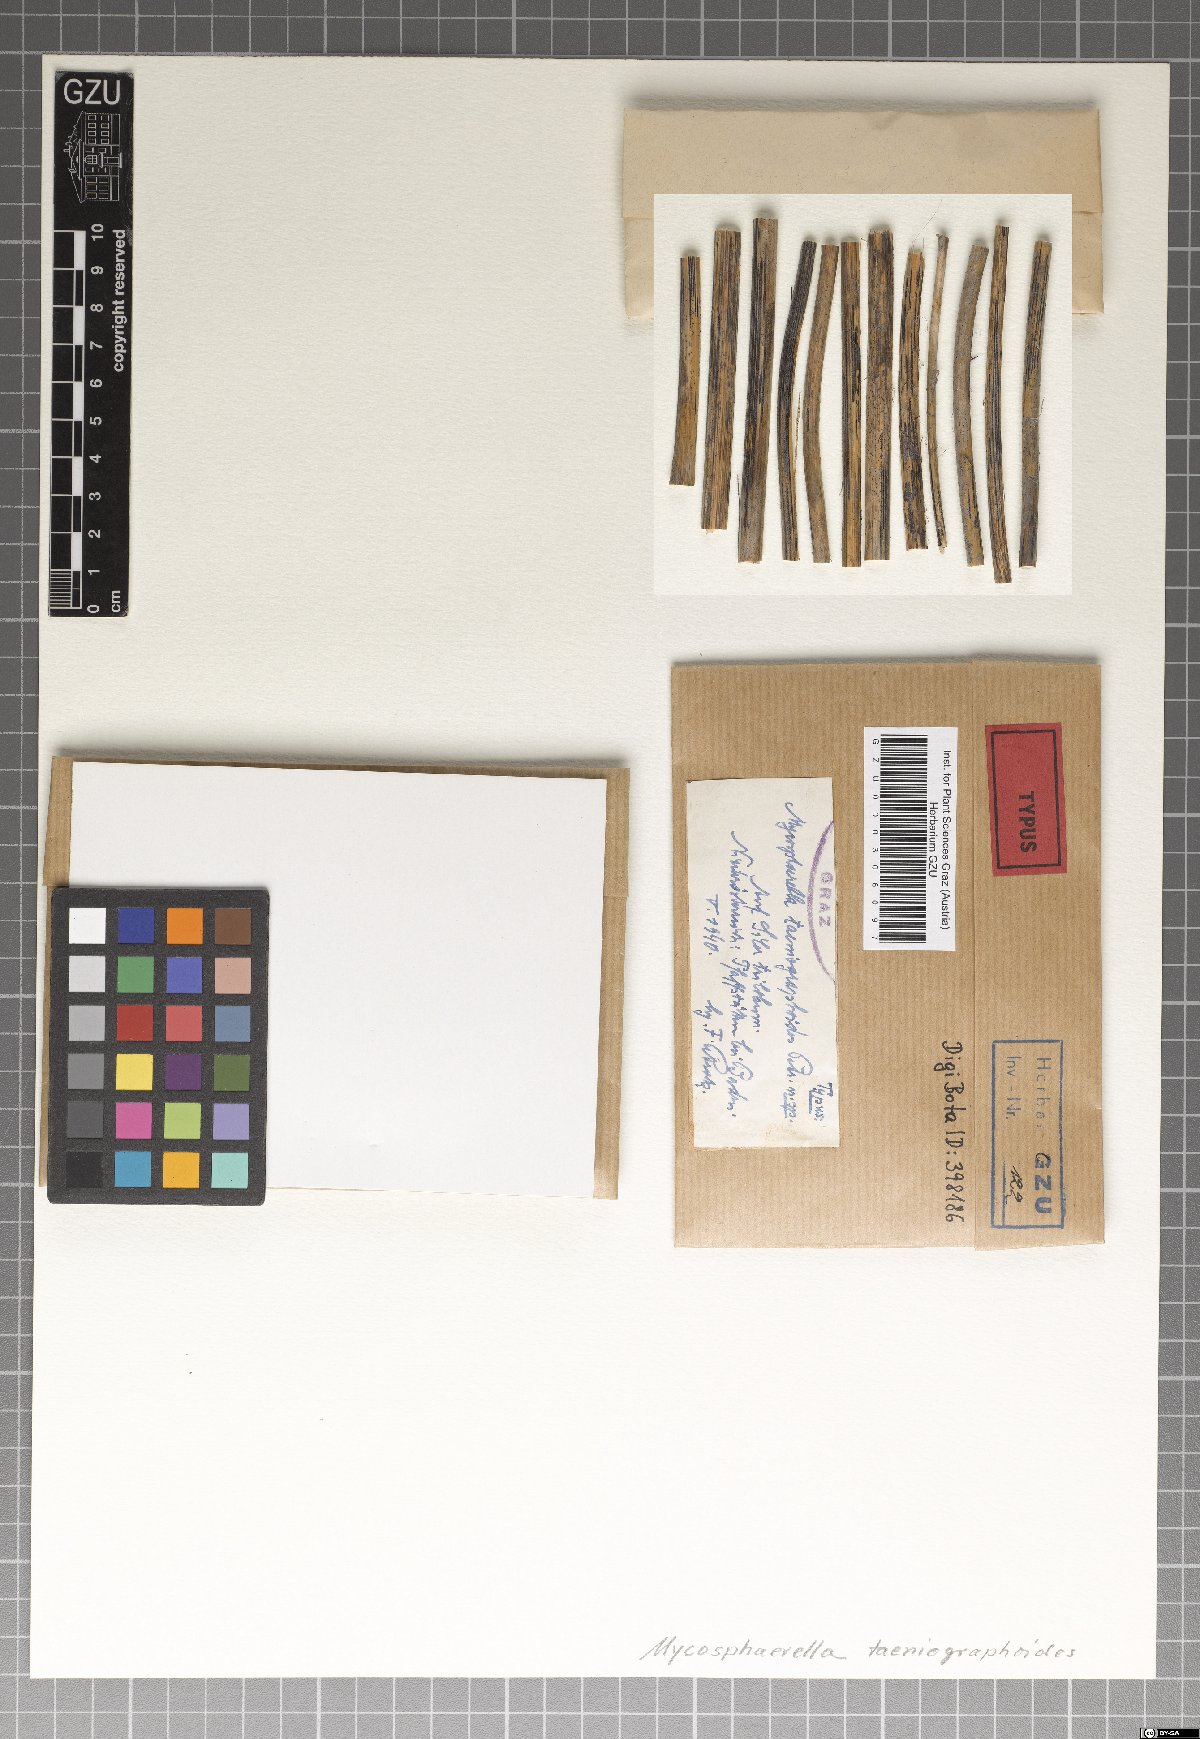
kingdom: Fungi
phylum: Ascomycota
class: Dothideomycetes
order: Mycosphaerellales
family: Mycosphaerellaceae
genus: Mycosphaerella
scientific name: Mycosphaerella taeniographoides
